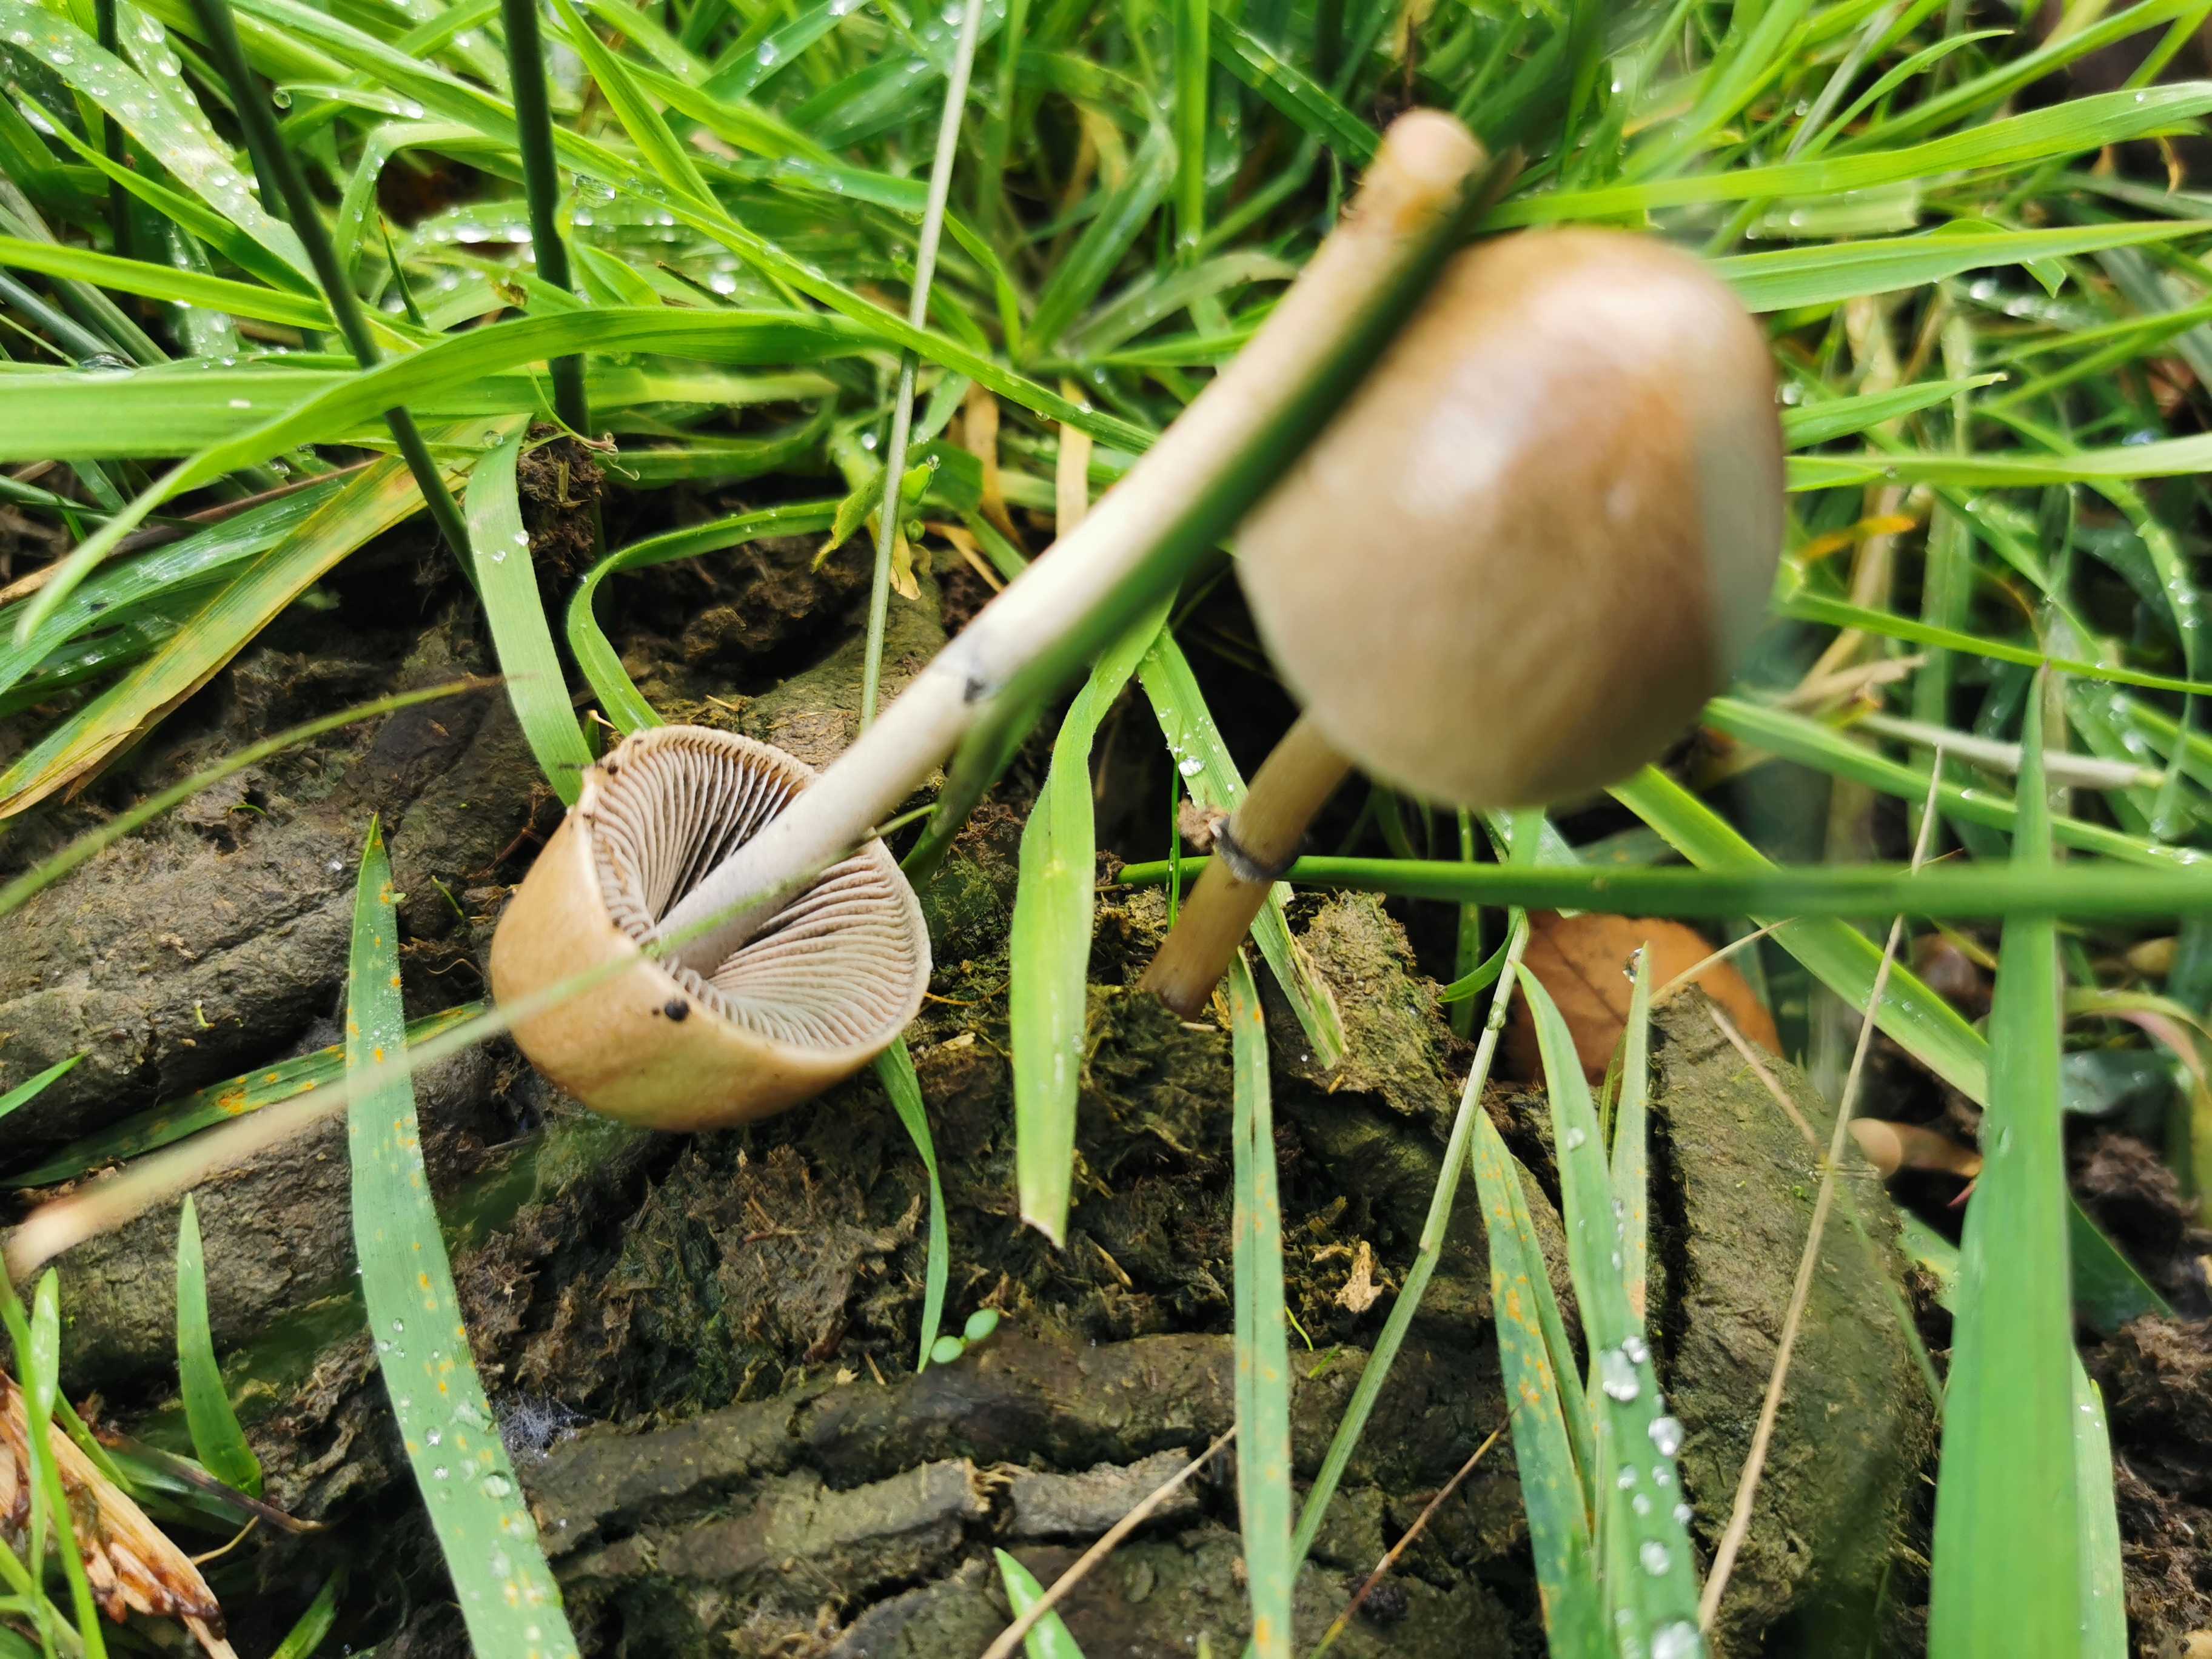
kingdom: Fungi
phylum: Basidiomycota
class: Agaricomycetes
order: Agaricales
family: Bolbitiaceae
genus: Panaeolus
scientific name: Panaeolus semiovatus
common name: ring-glanshat
